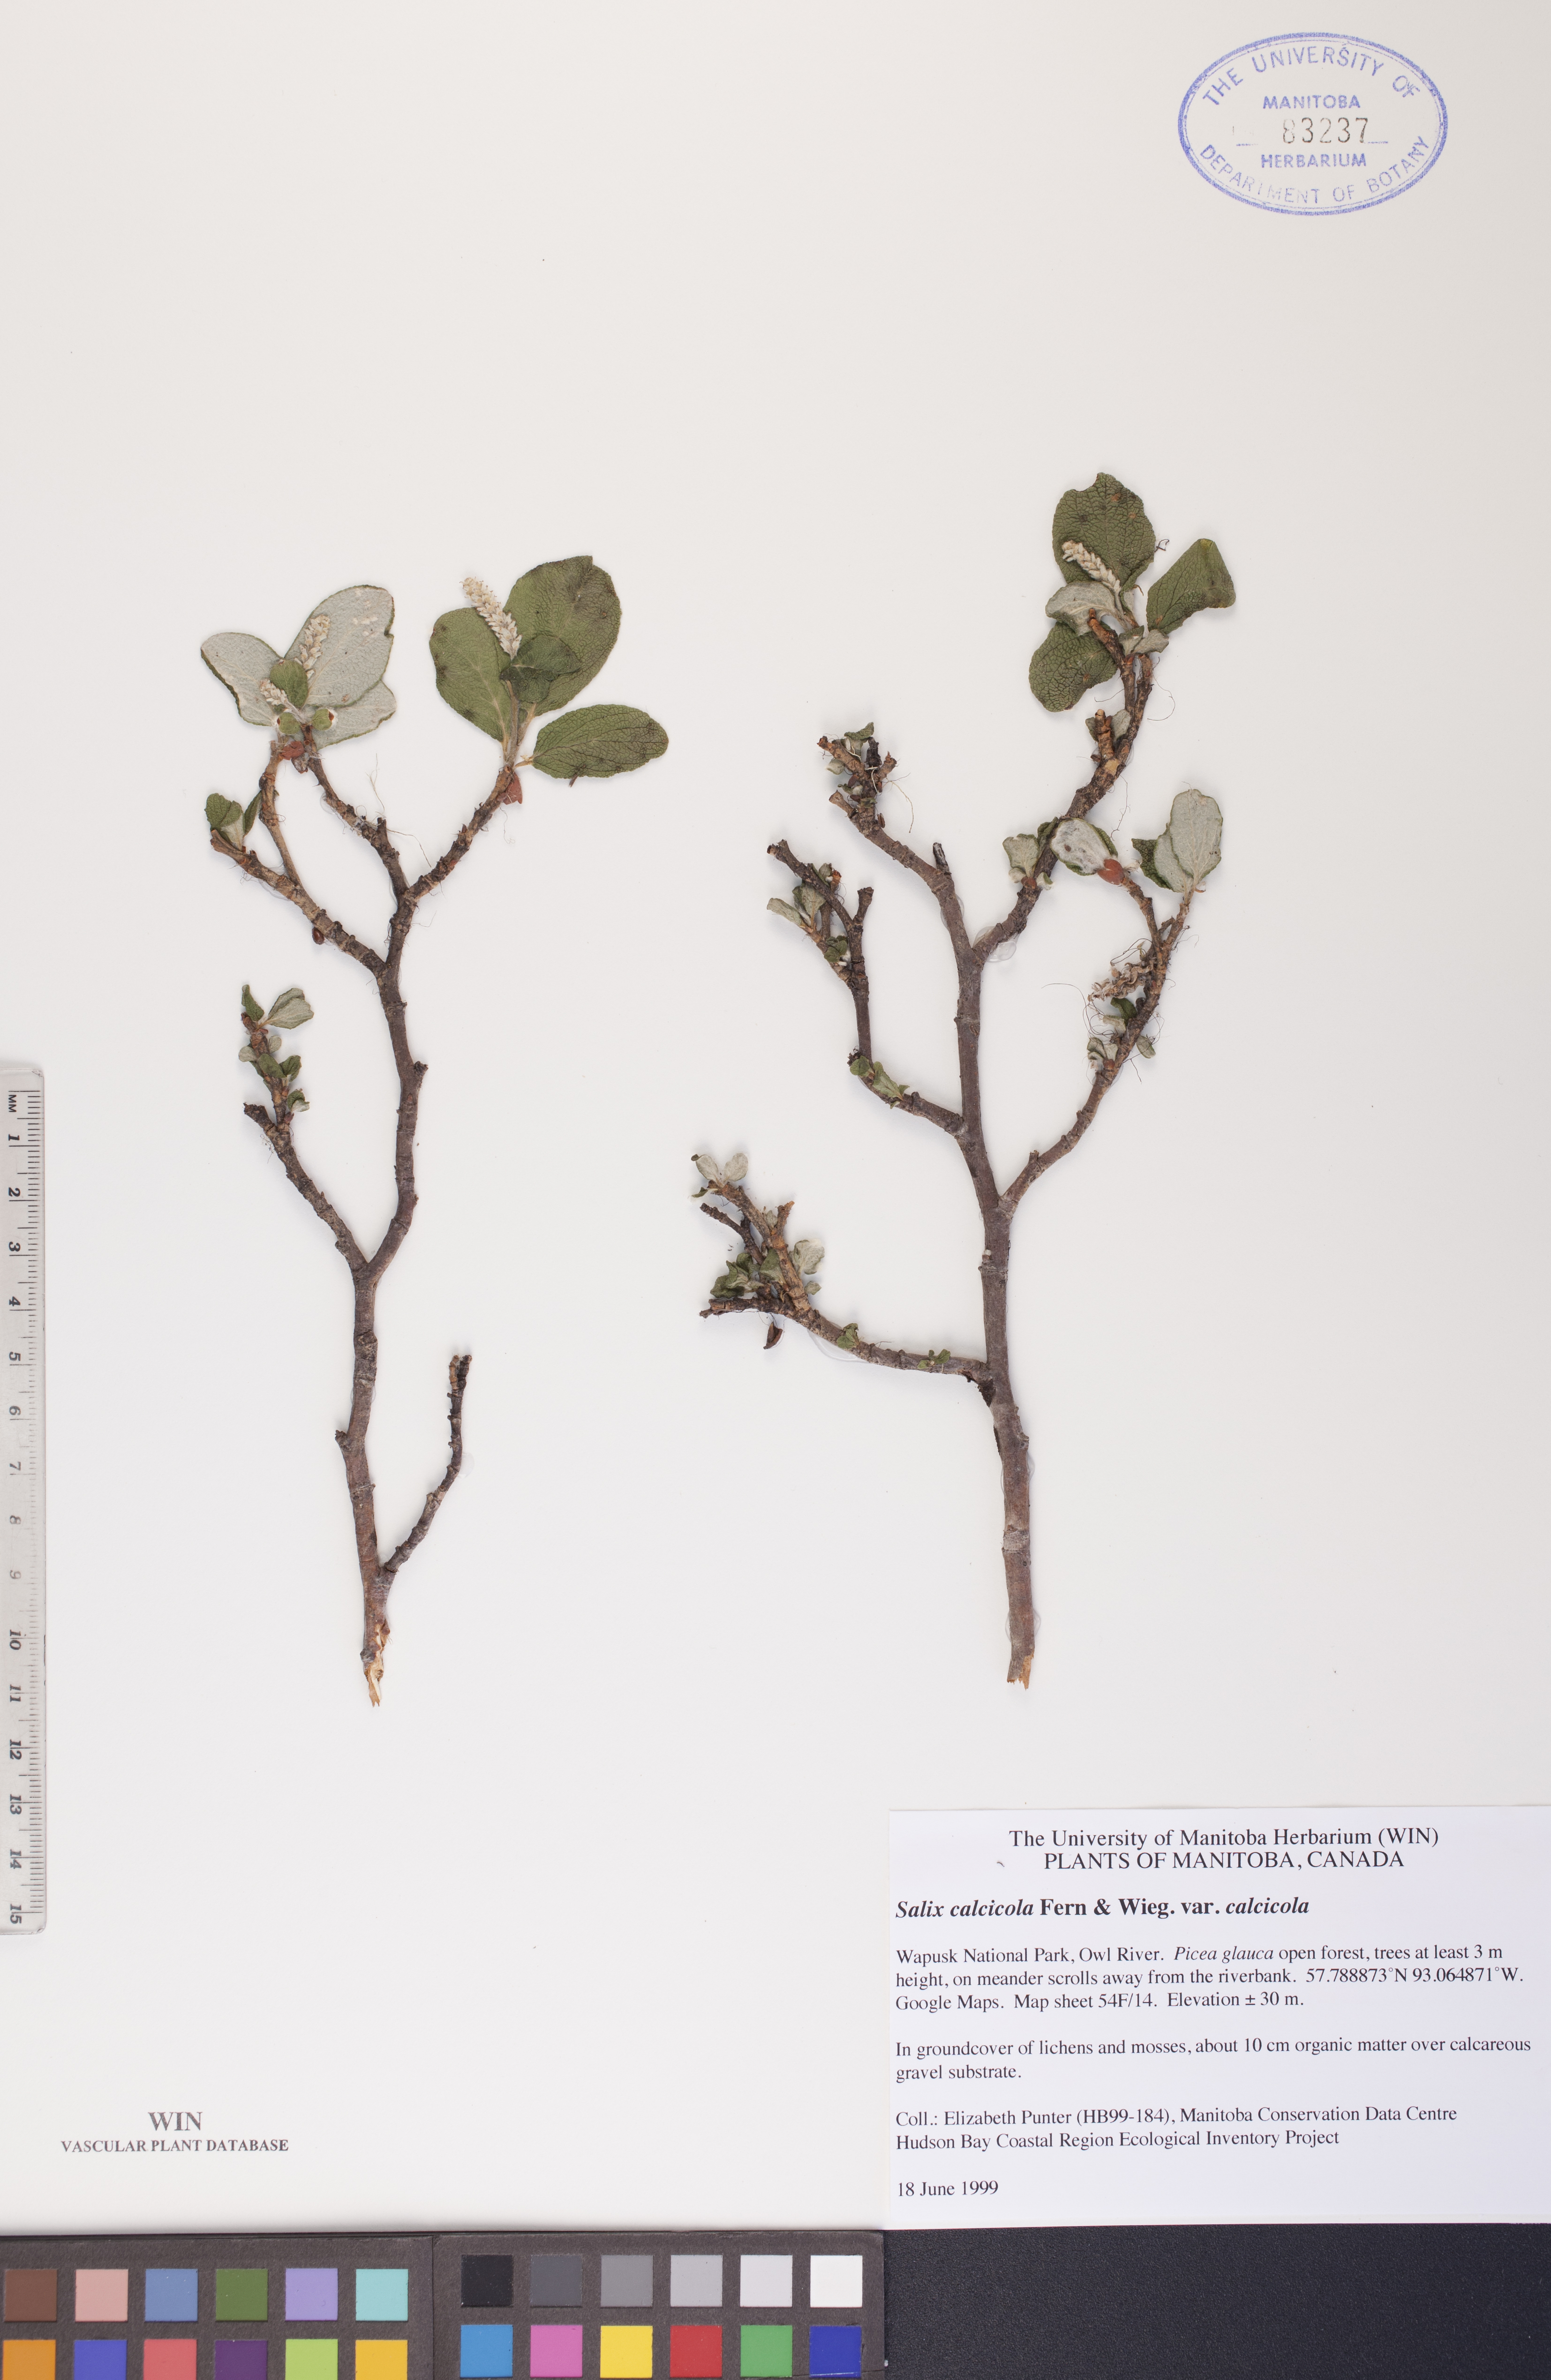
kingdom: Plantae
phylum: Tracheophyta
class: Magnoliopsida
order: Malpighiales
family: Salicaceae
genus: Salix
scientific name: Salix calcicola
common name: Calcareous willow
